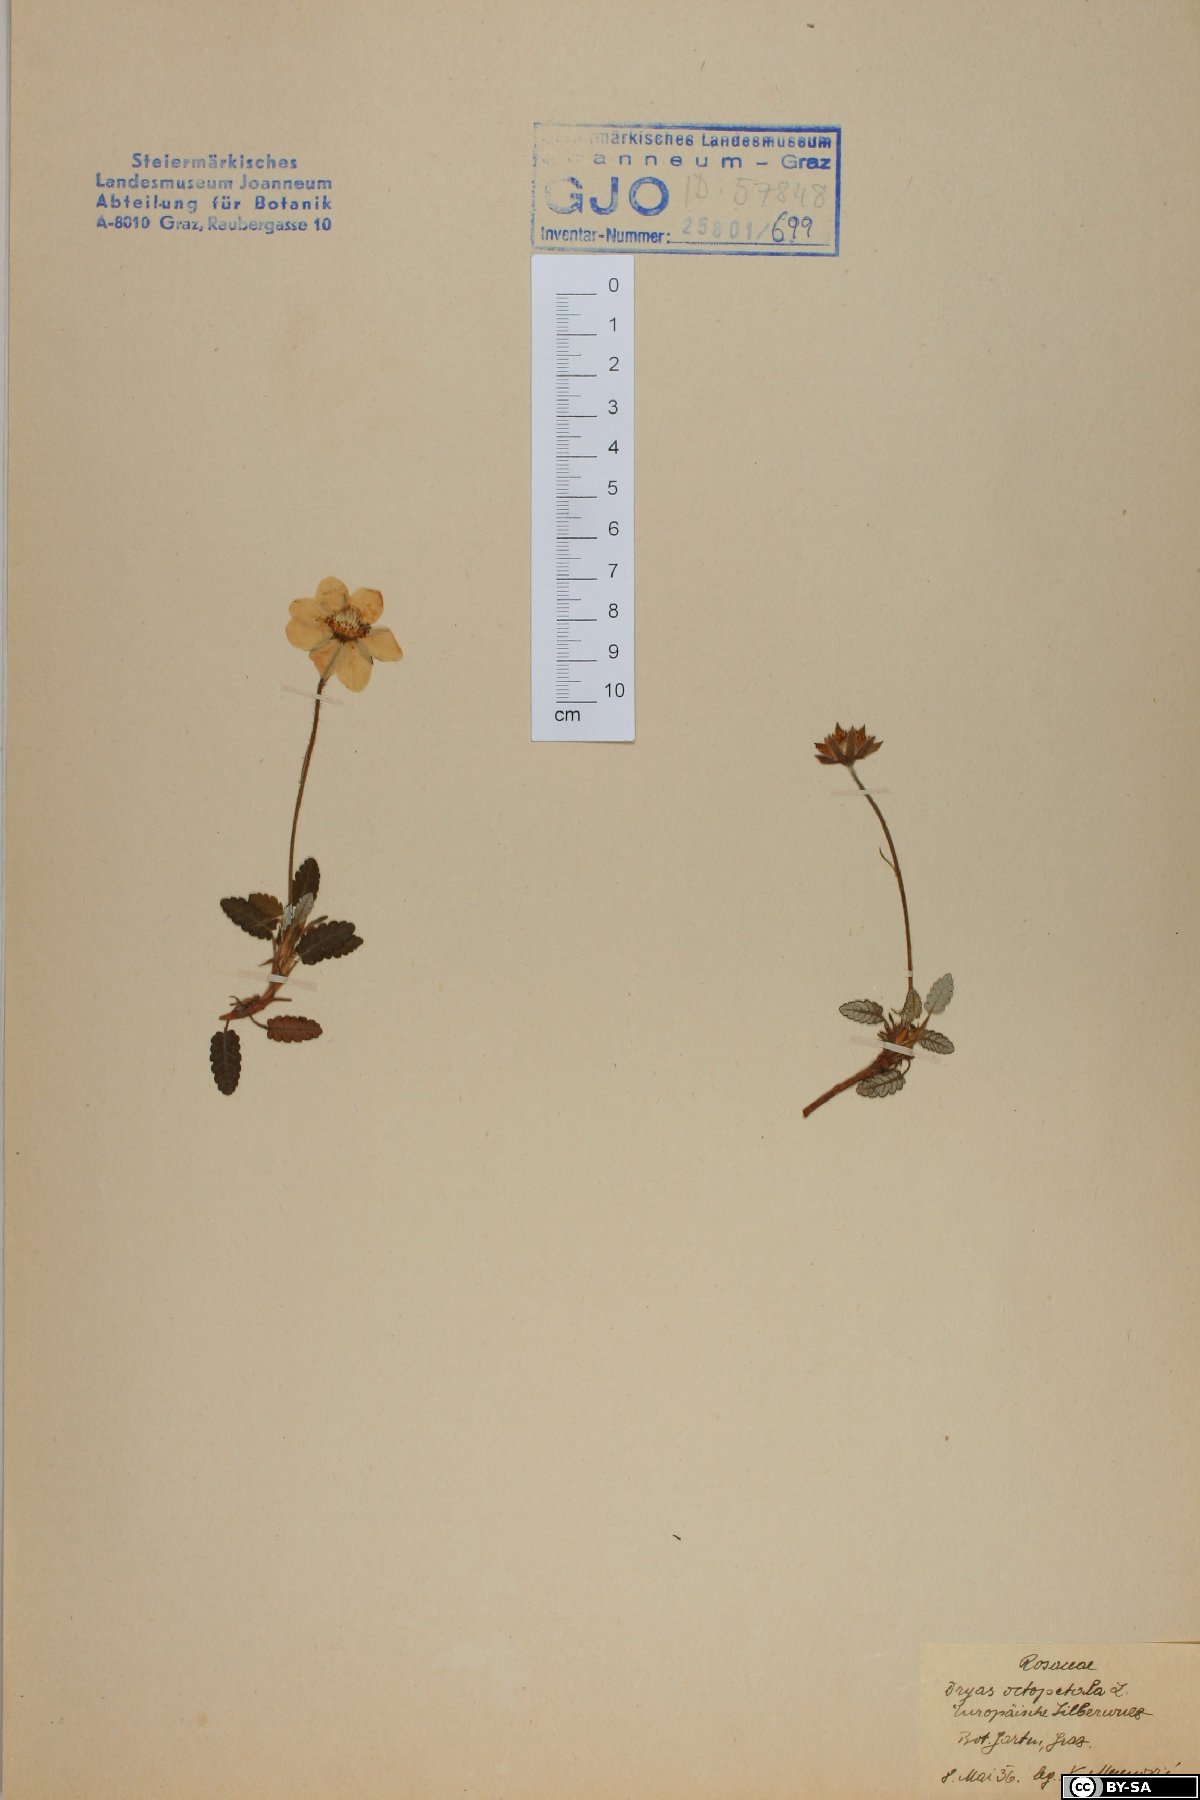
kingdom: Plantae
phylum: Tracheophyta
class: Magnoliopsida
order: Rosales
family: Rosaceae
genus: Dryas
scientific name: Dryas octopetala
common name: Eight-petal mountain-avens
